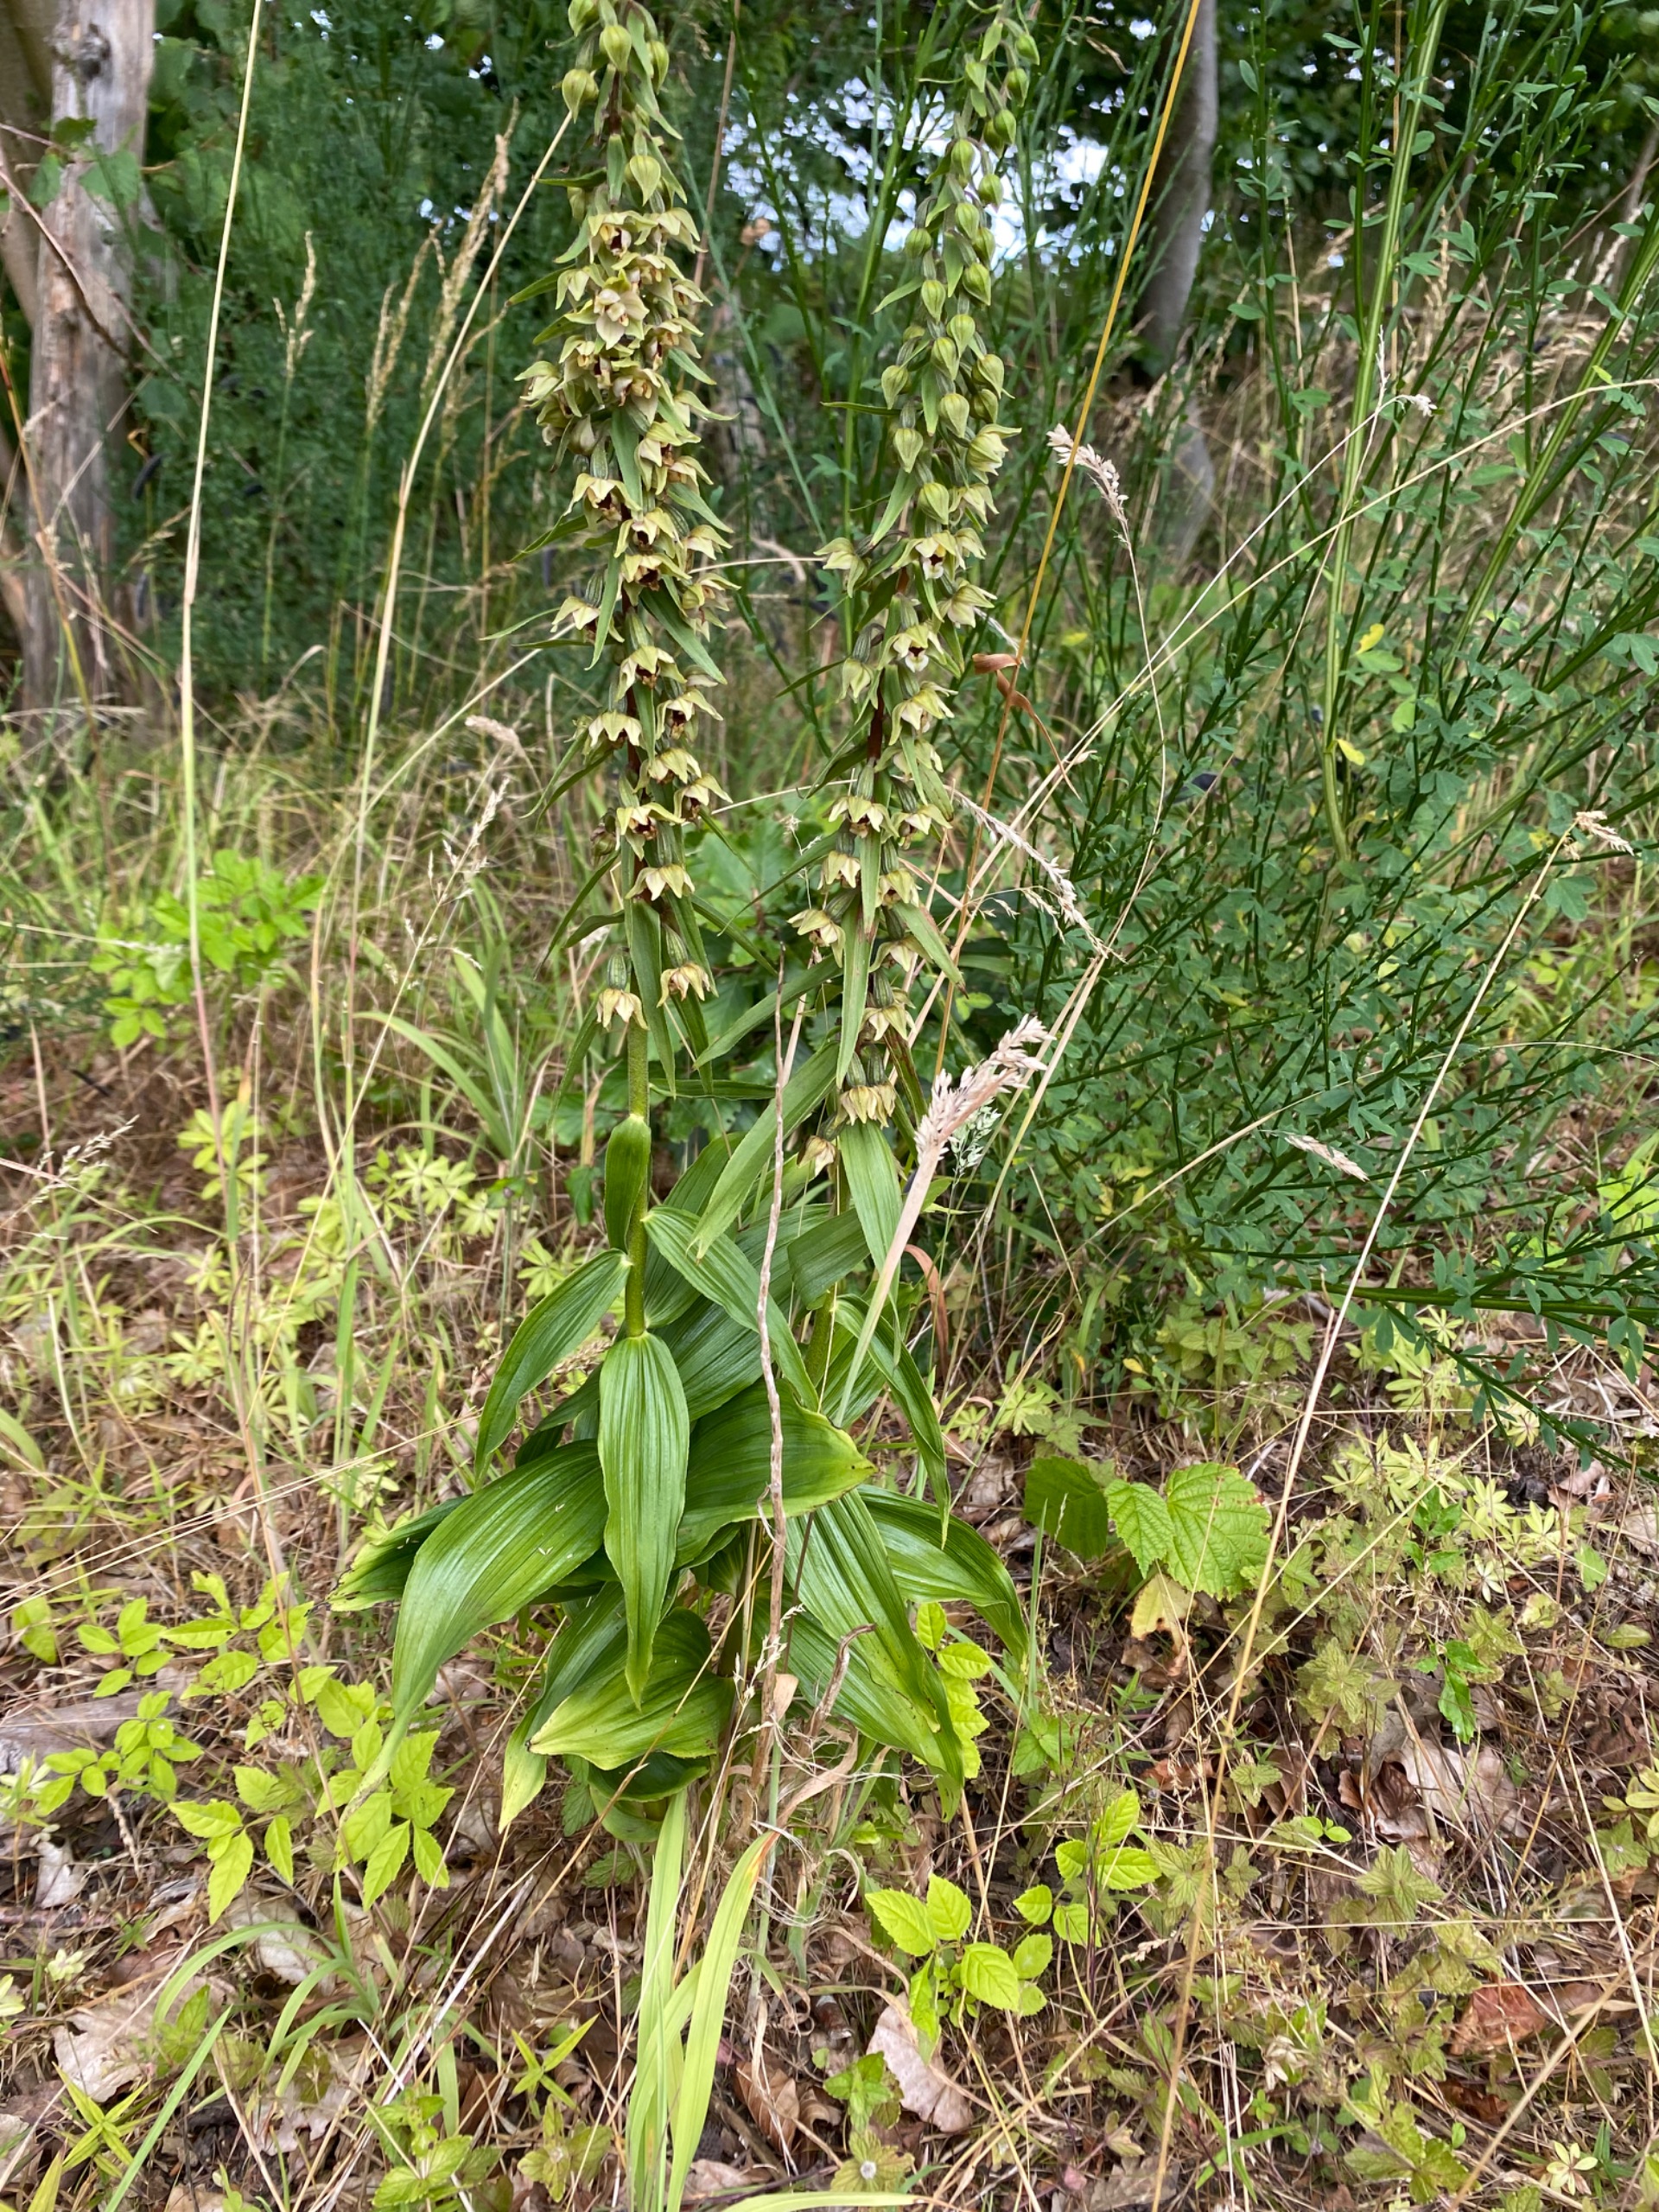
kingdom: Plantae
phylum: Tracheophyta
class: Liliopsida
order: Asparagales
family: Orchidaceae
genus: Epipactis
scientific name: Epipactis helleborine
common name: Skov-hullæbe
